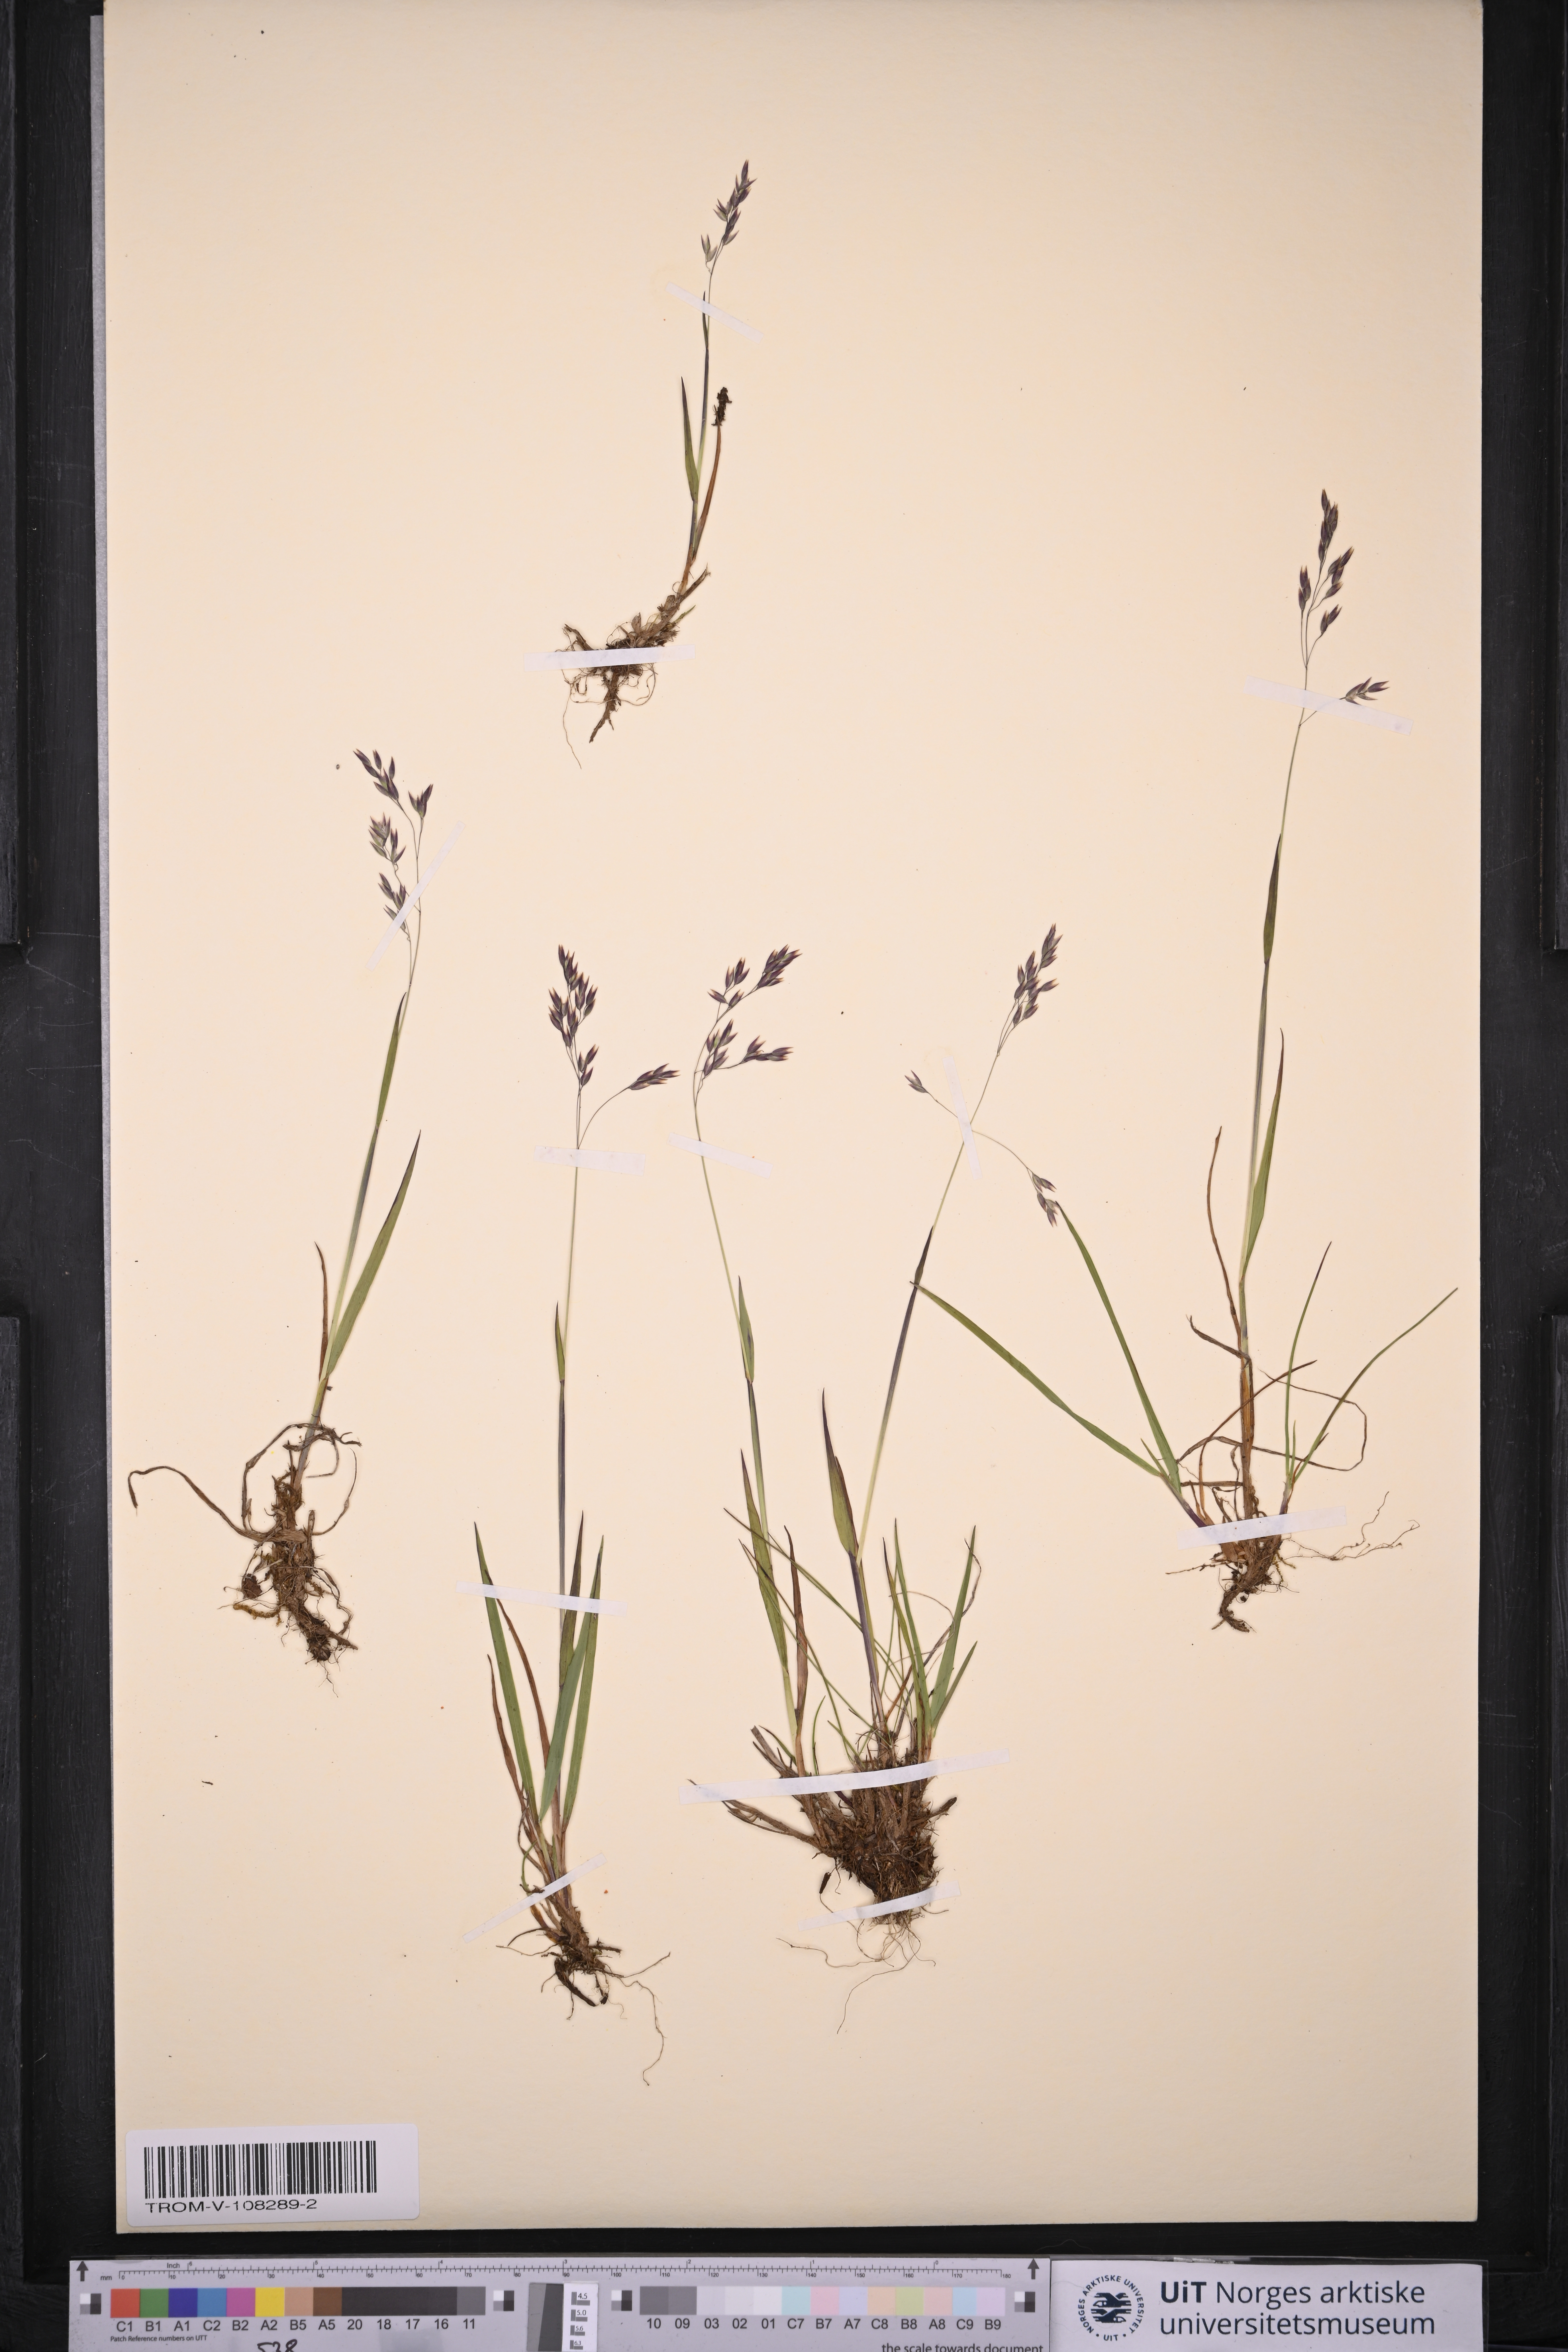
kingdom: Plantae
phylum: Tracheophyta
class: Liliopsida
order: Poales
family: Poaceae
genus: Vahlodea
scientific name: Vahlodea atropurpurea
